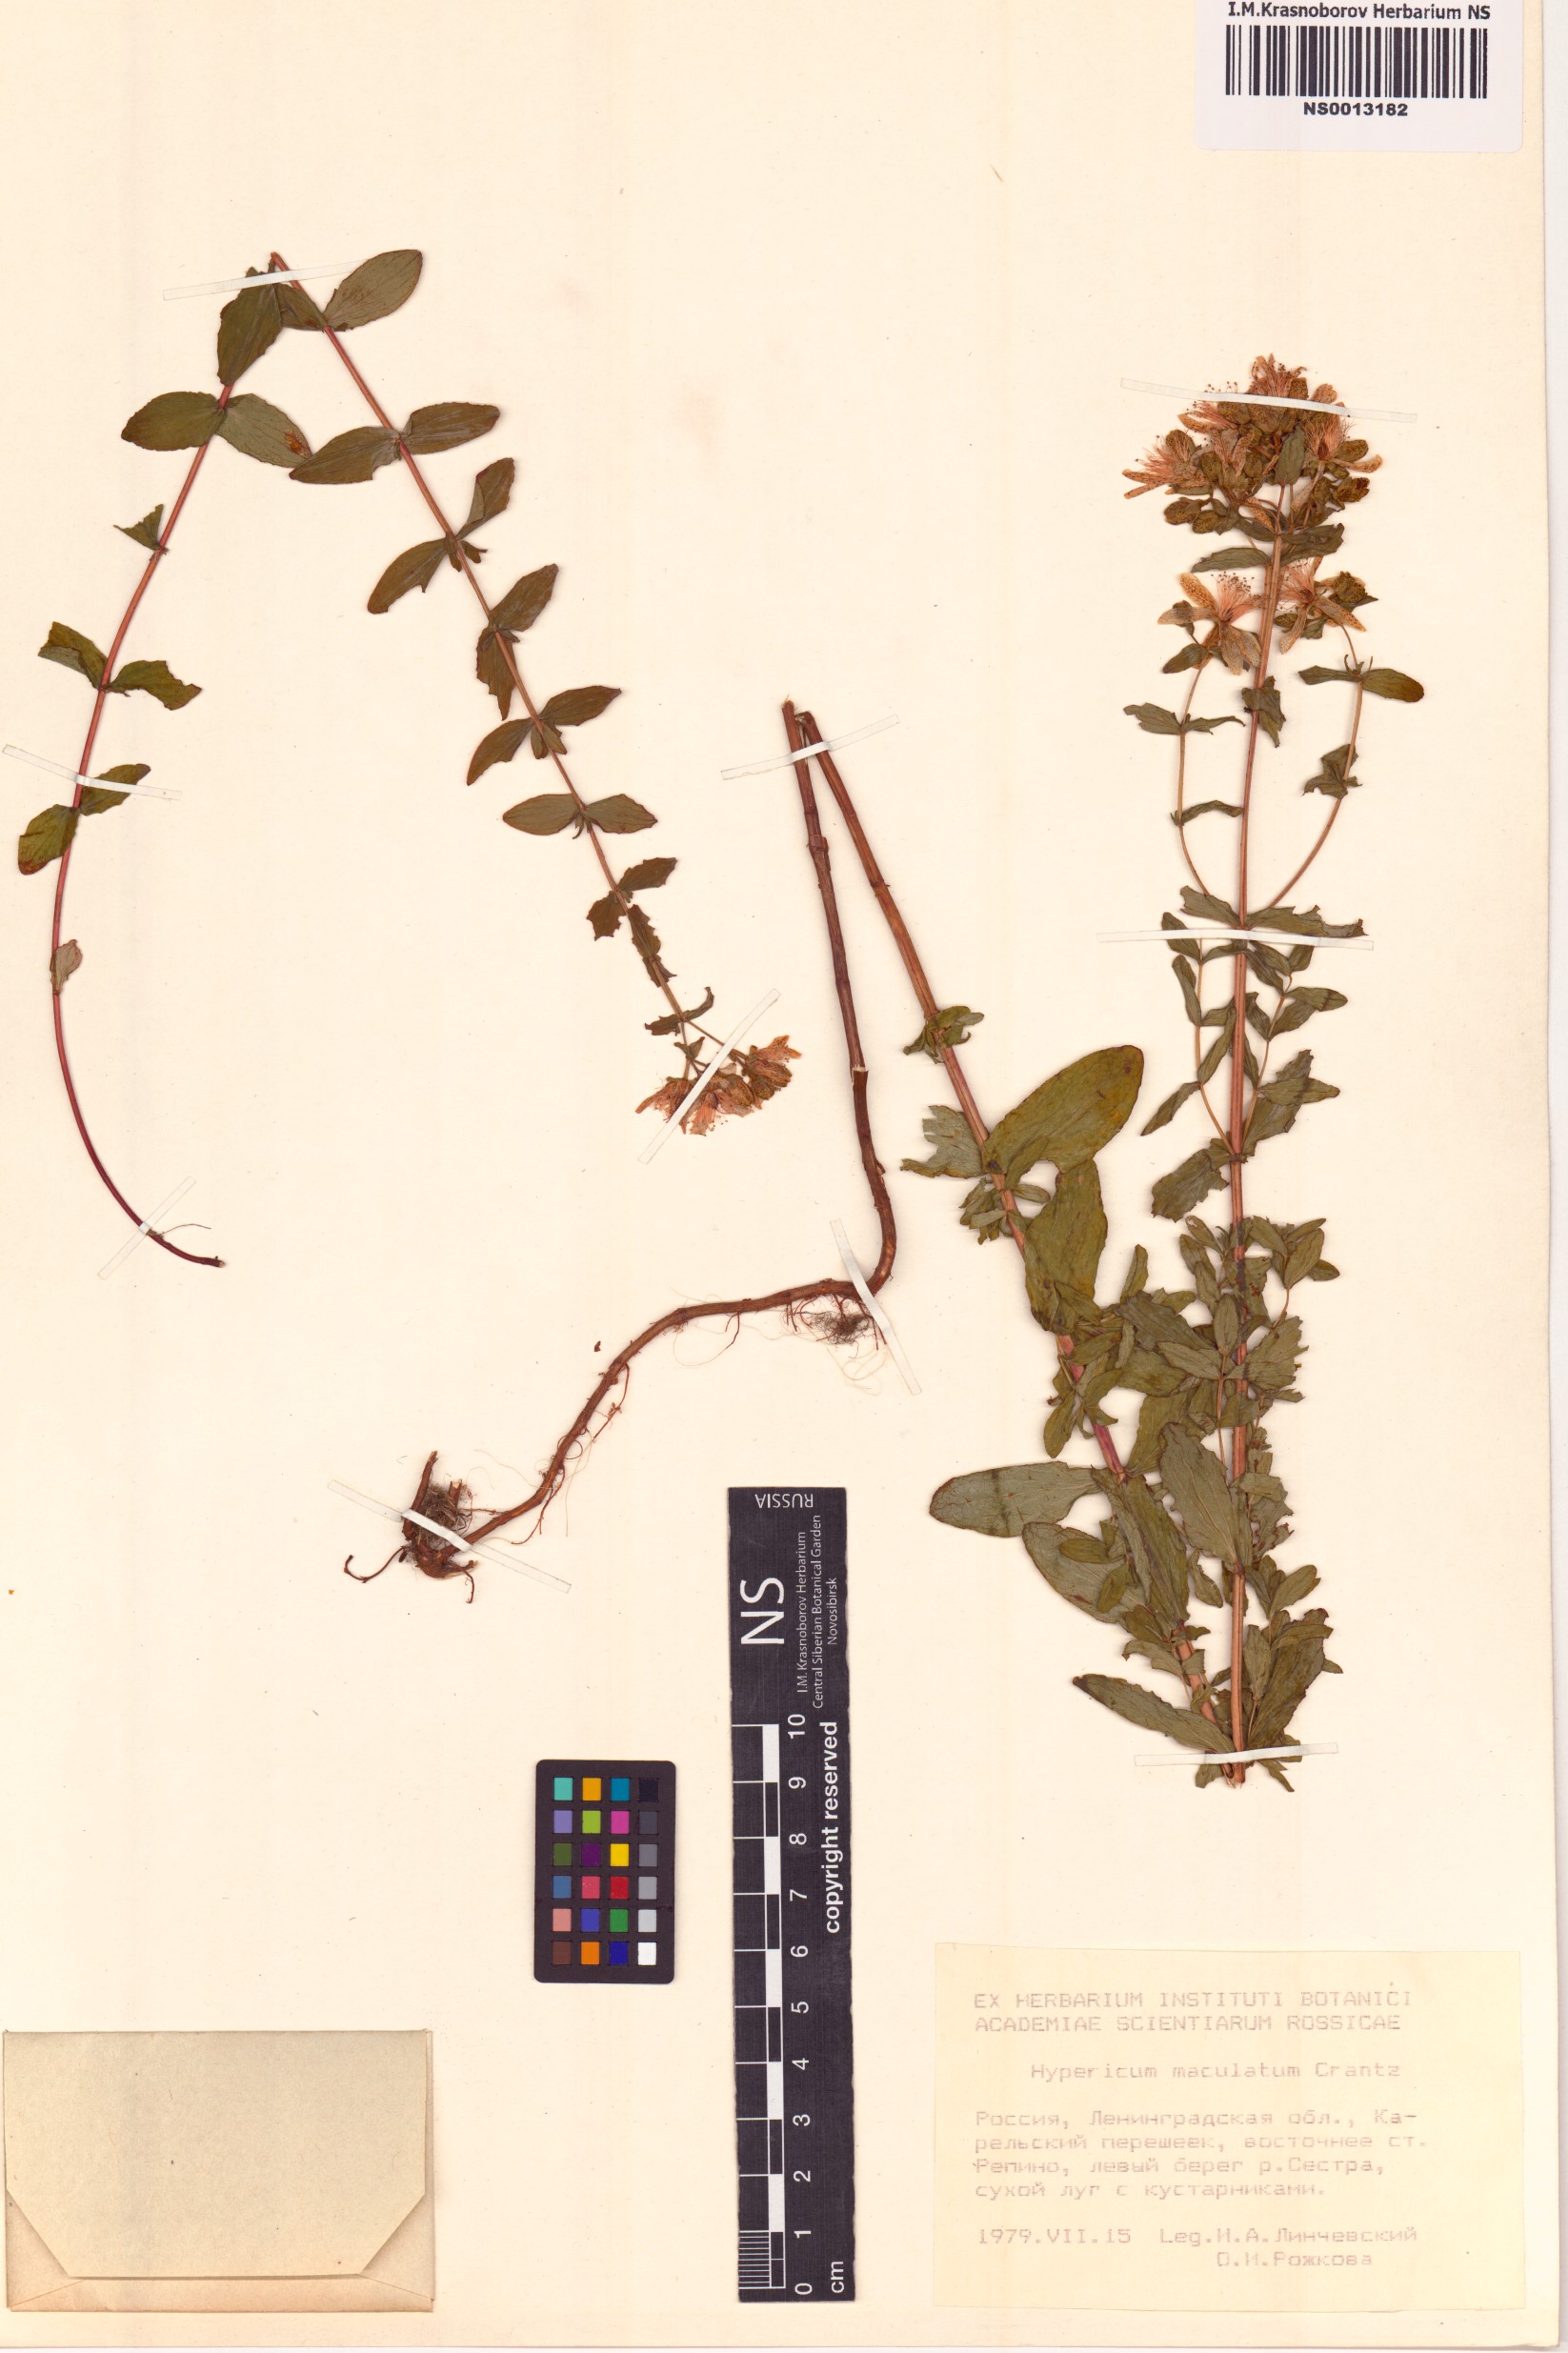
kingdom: Plantae
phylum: Tracheophyta
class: Magnoliopsida
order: Malpighiales
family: Hypericaceae
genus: Hypericum
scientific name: Hypericum maculatum
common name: Imperforate st. john's-wort
